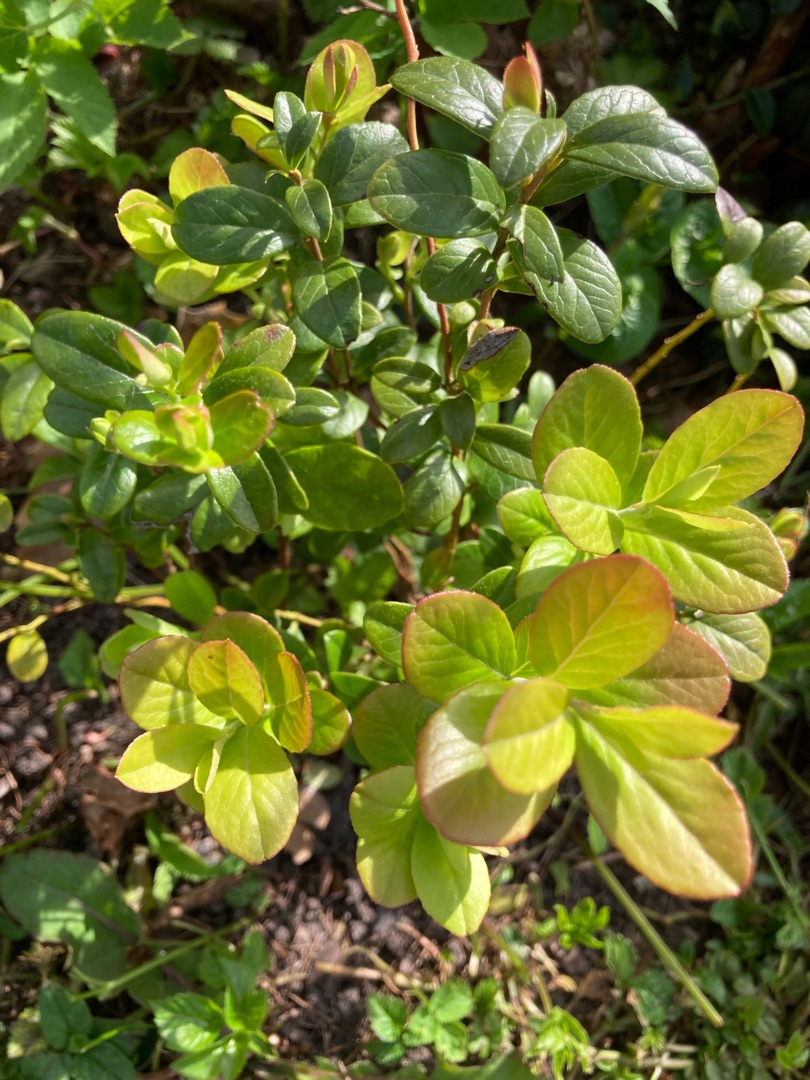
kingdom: Plantae
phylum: Tracheophyta
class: Magnoliopsida
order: Ericales
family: Ericaceae
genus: Vaccinium
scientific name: Vaccinium vitis-idaea
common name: Tyttebær
